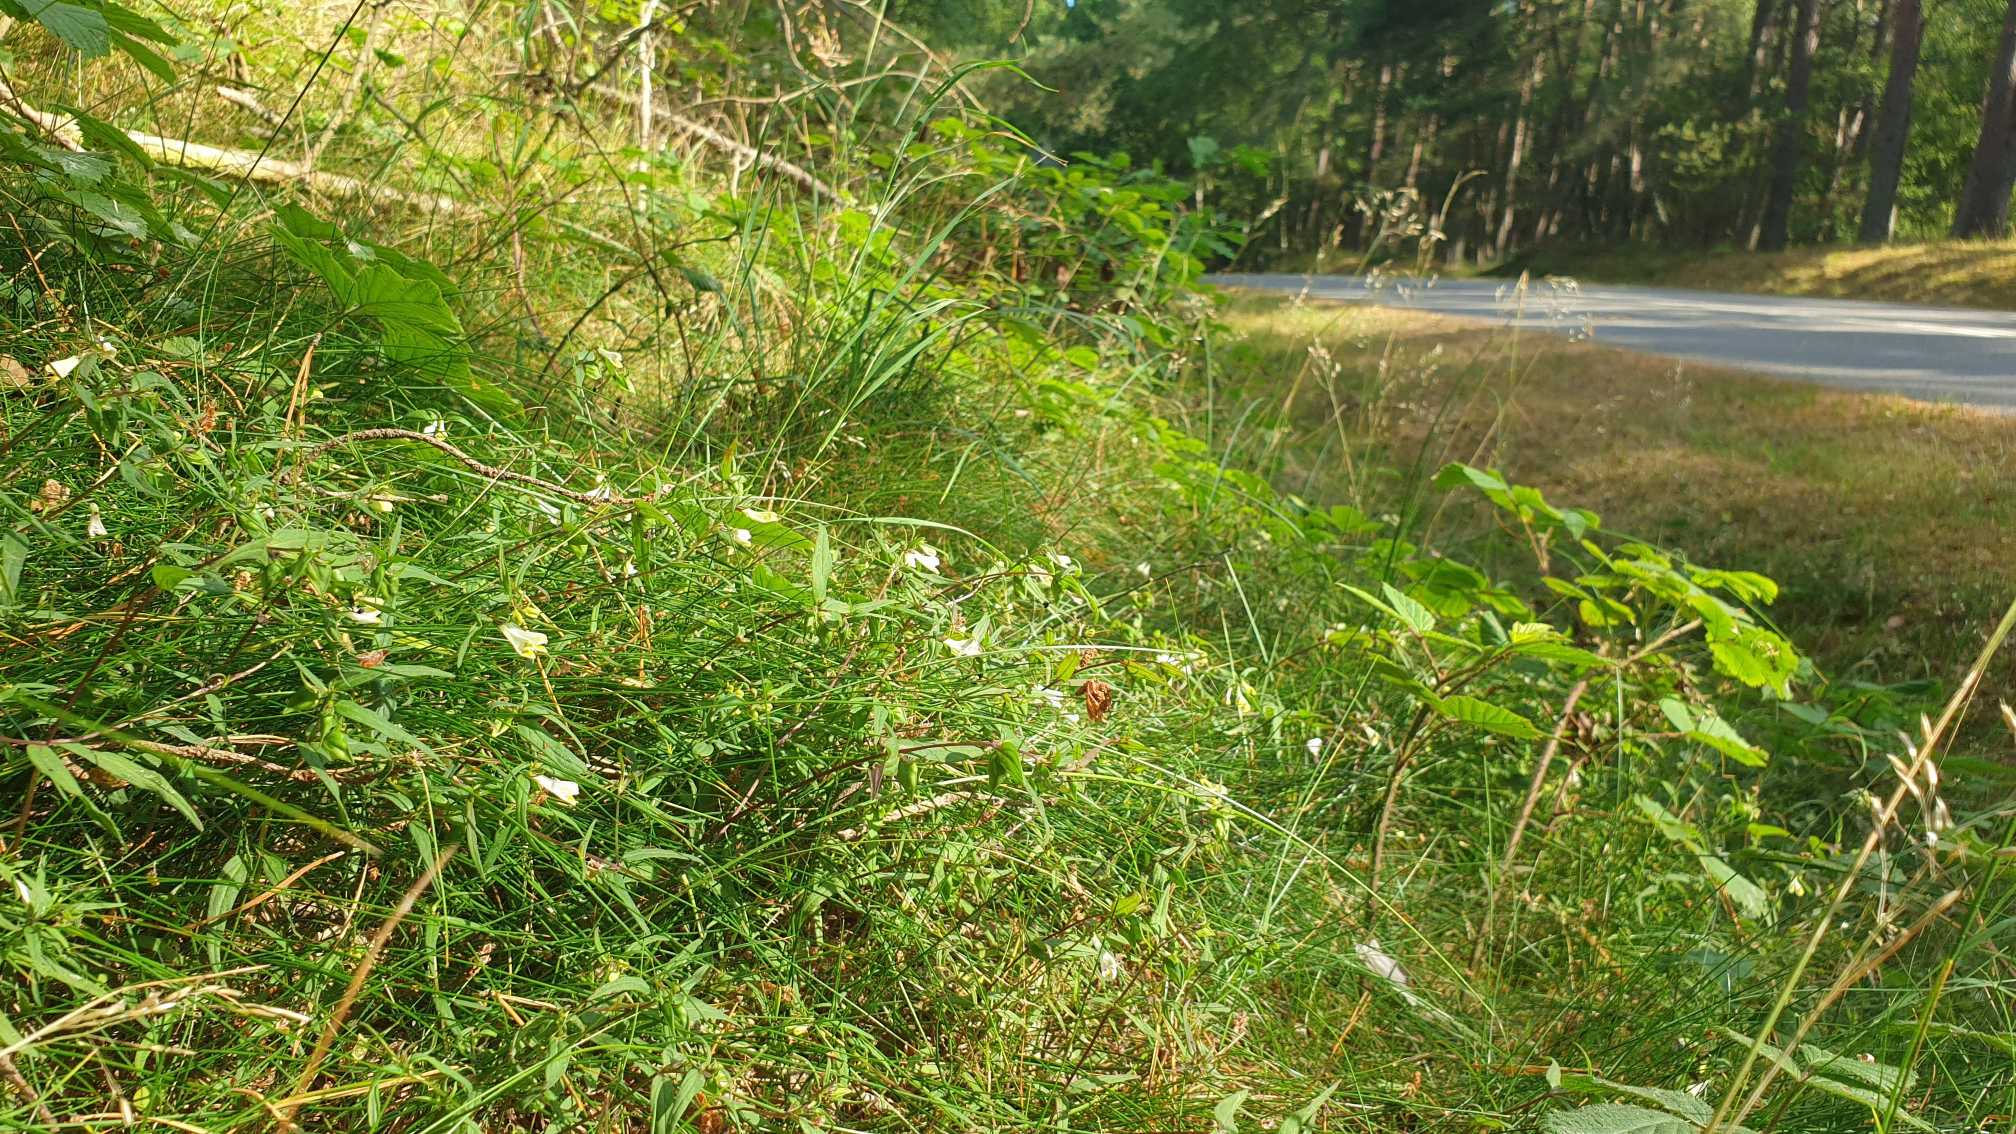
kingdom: Plantae
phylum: Tracheophyta
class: Magnoliopsida
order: Lamiales
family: Orobanchaceae
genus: Melampyrum
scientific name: Melampyrum pratense
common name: Almindelig kohvede
